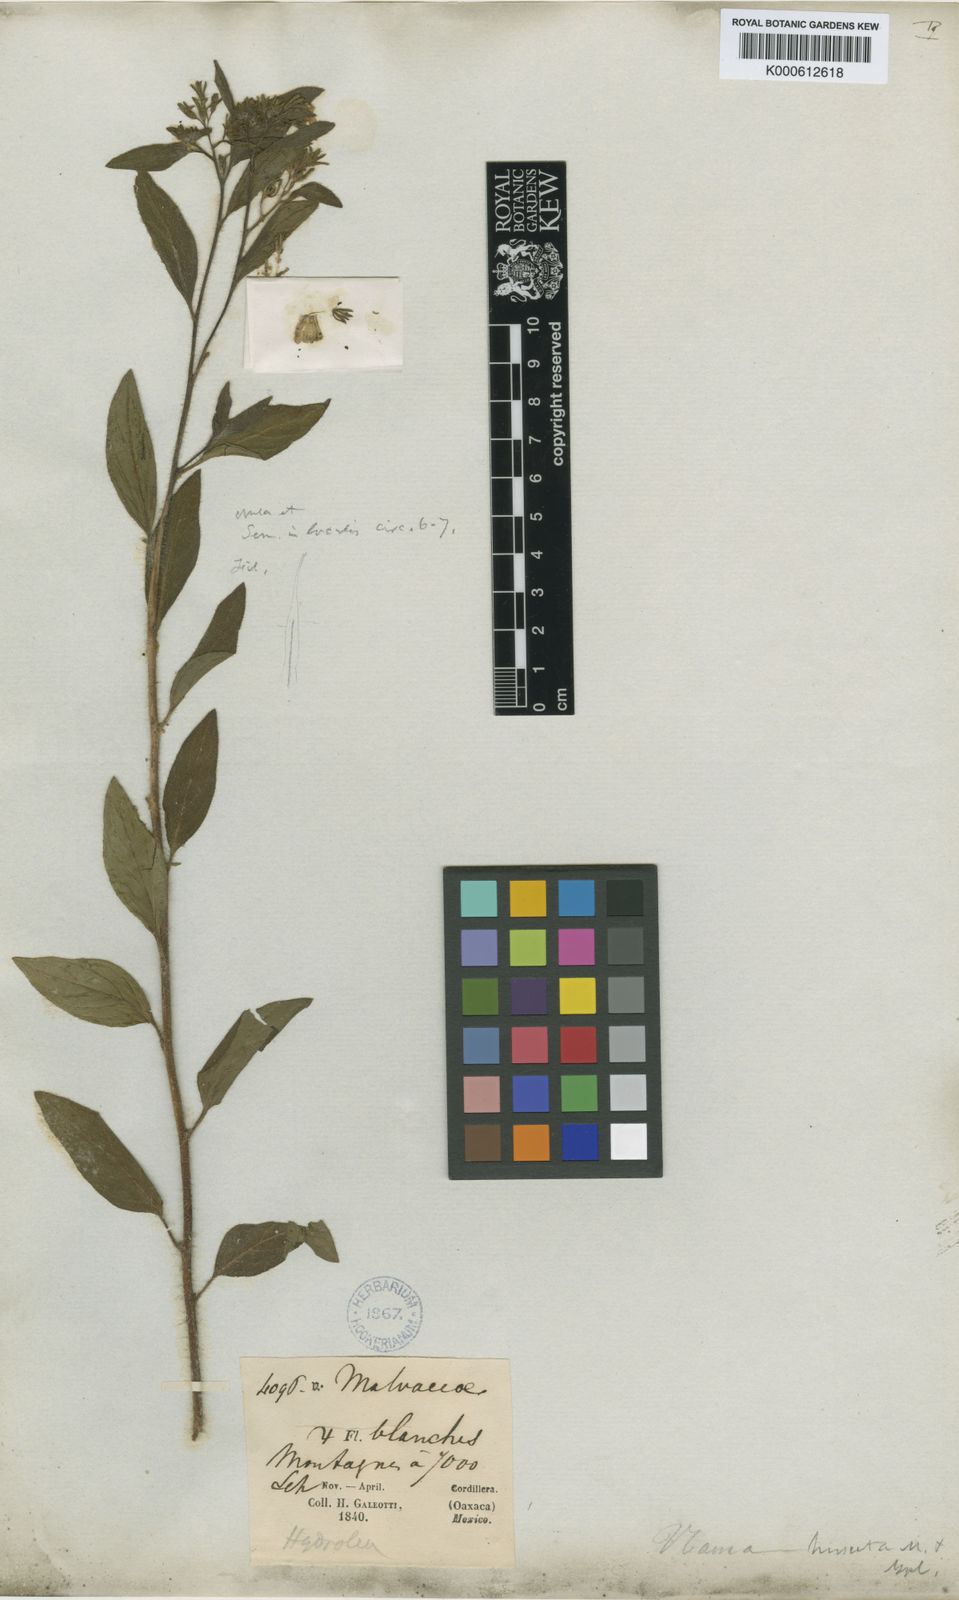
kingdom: Plantae
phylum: Tracheophyta
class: Magnoliopsida
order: Boraginales
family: Namaceae
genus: Nama
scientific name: Nama hirsuta
